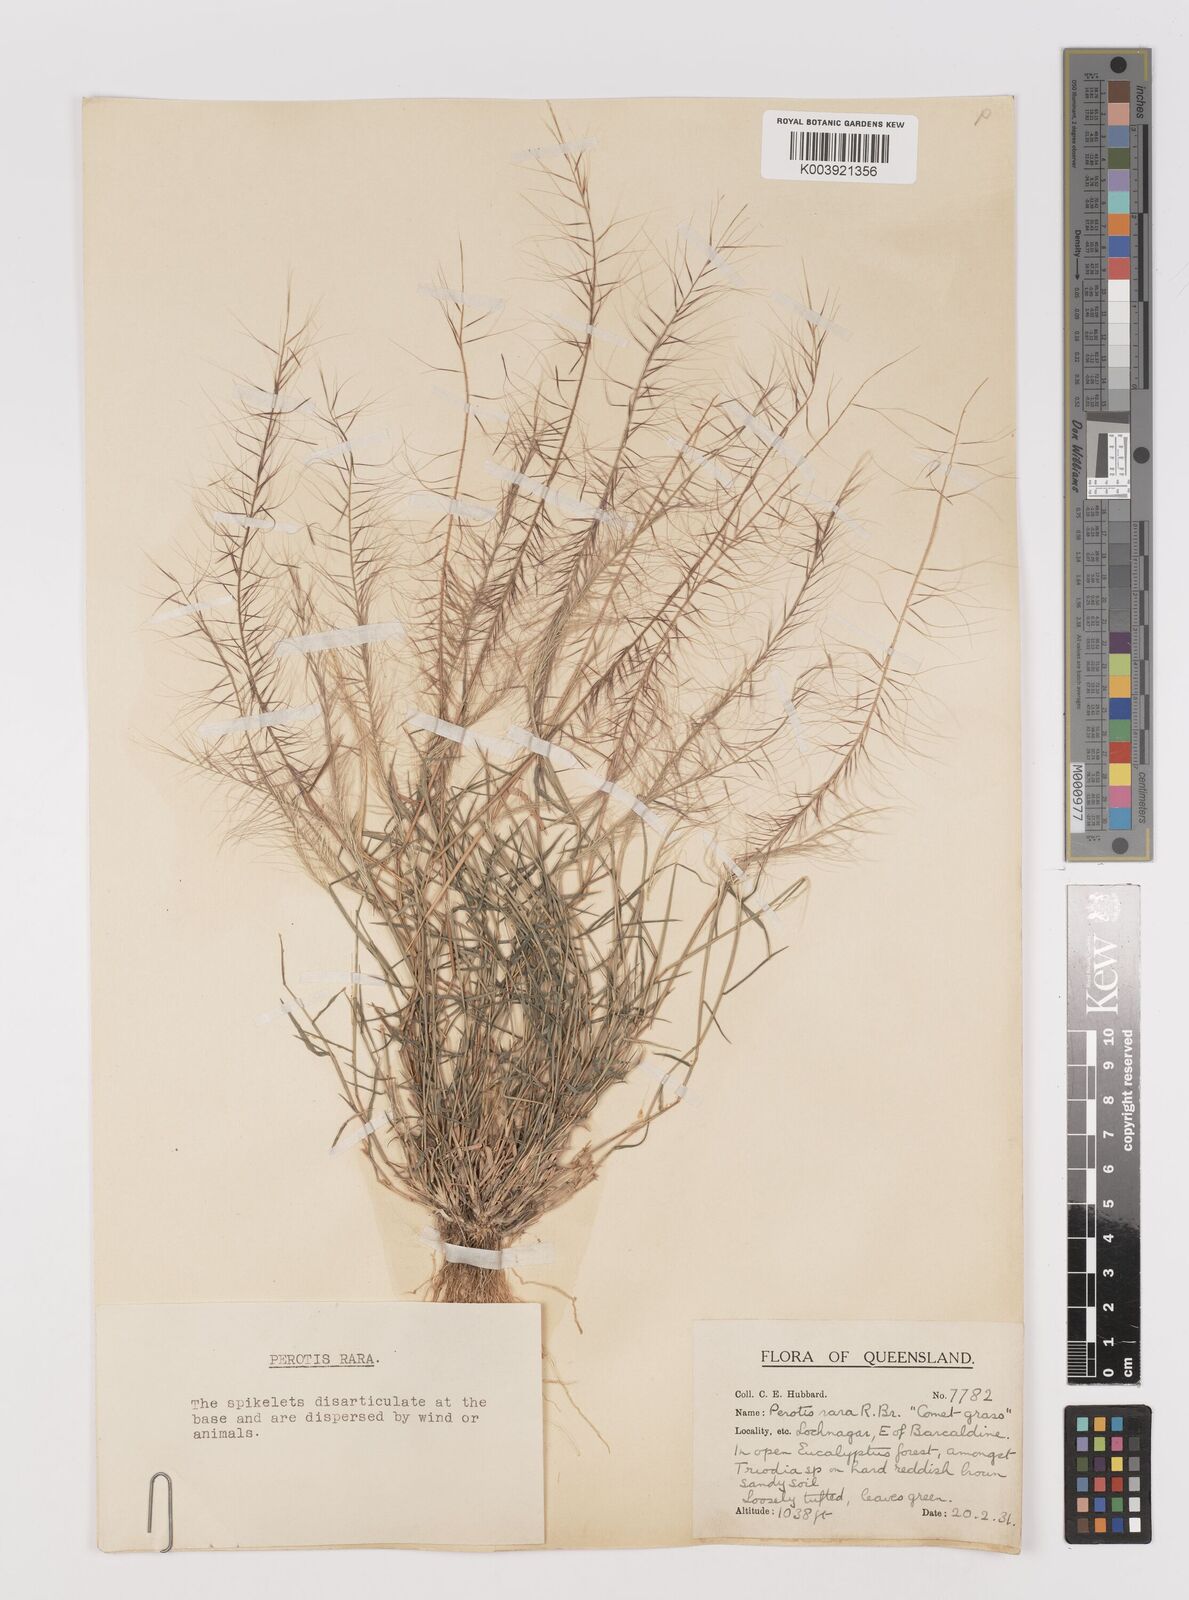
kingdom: Plantae
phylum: Tracheophyta
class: Liliopsida
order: Poales
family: Poaceae
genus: Perotis
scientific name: Perotis rara
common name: Comet grass
